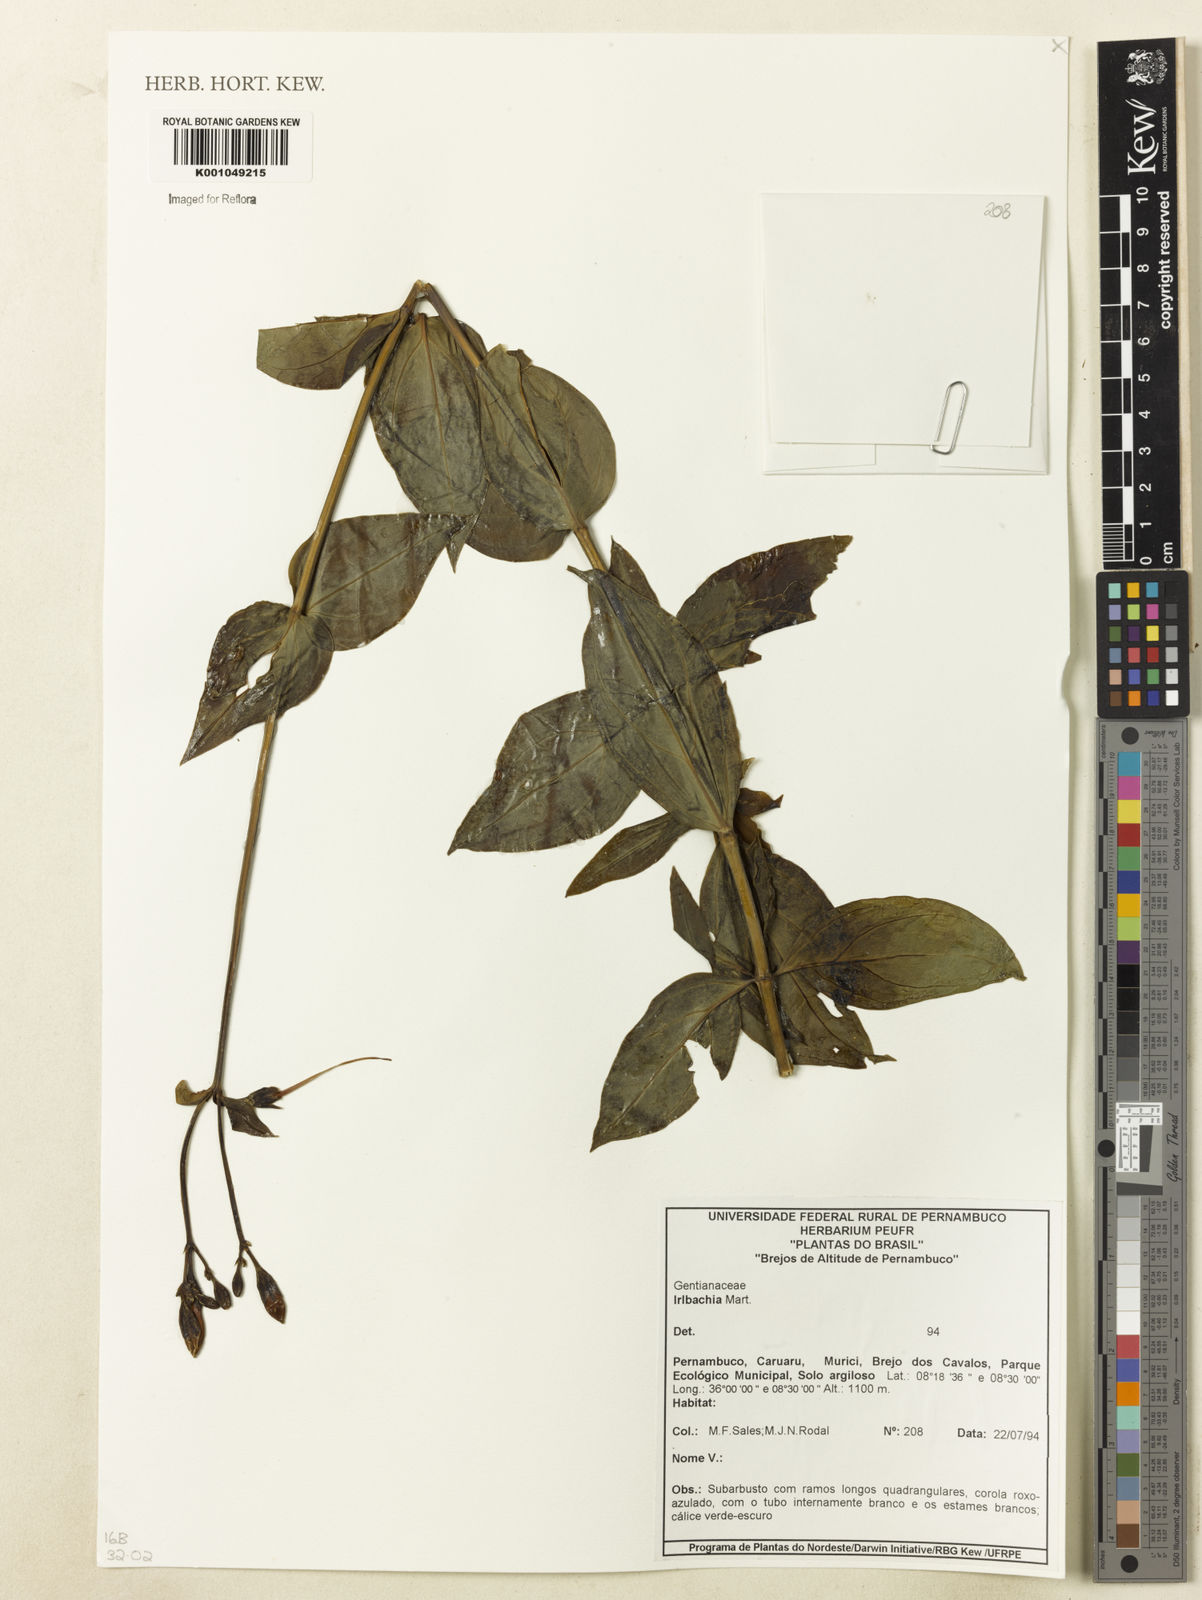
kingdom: Plantae
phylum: Tracheophyta
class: Magnoliopsida
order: Gentianales
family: Gentianaceae
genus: Irlbachia
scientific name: Irlbachia
